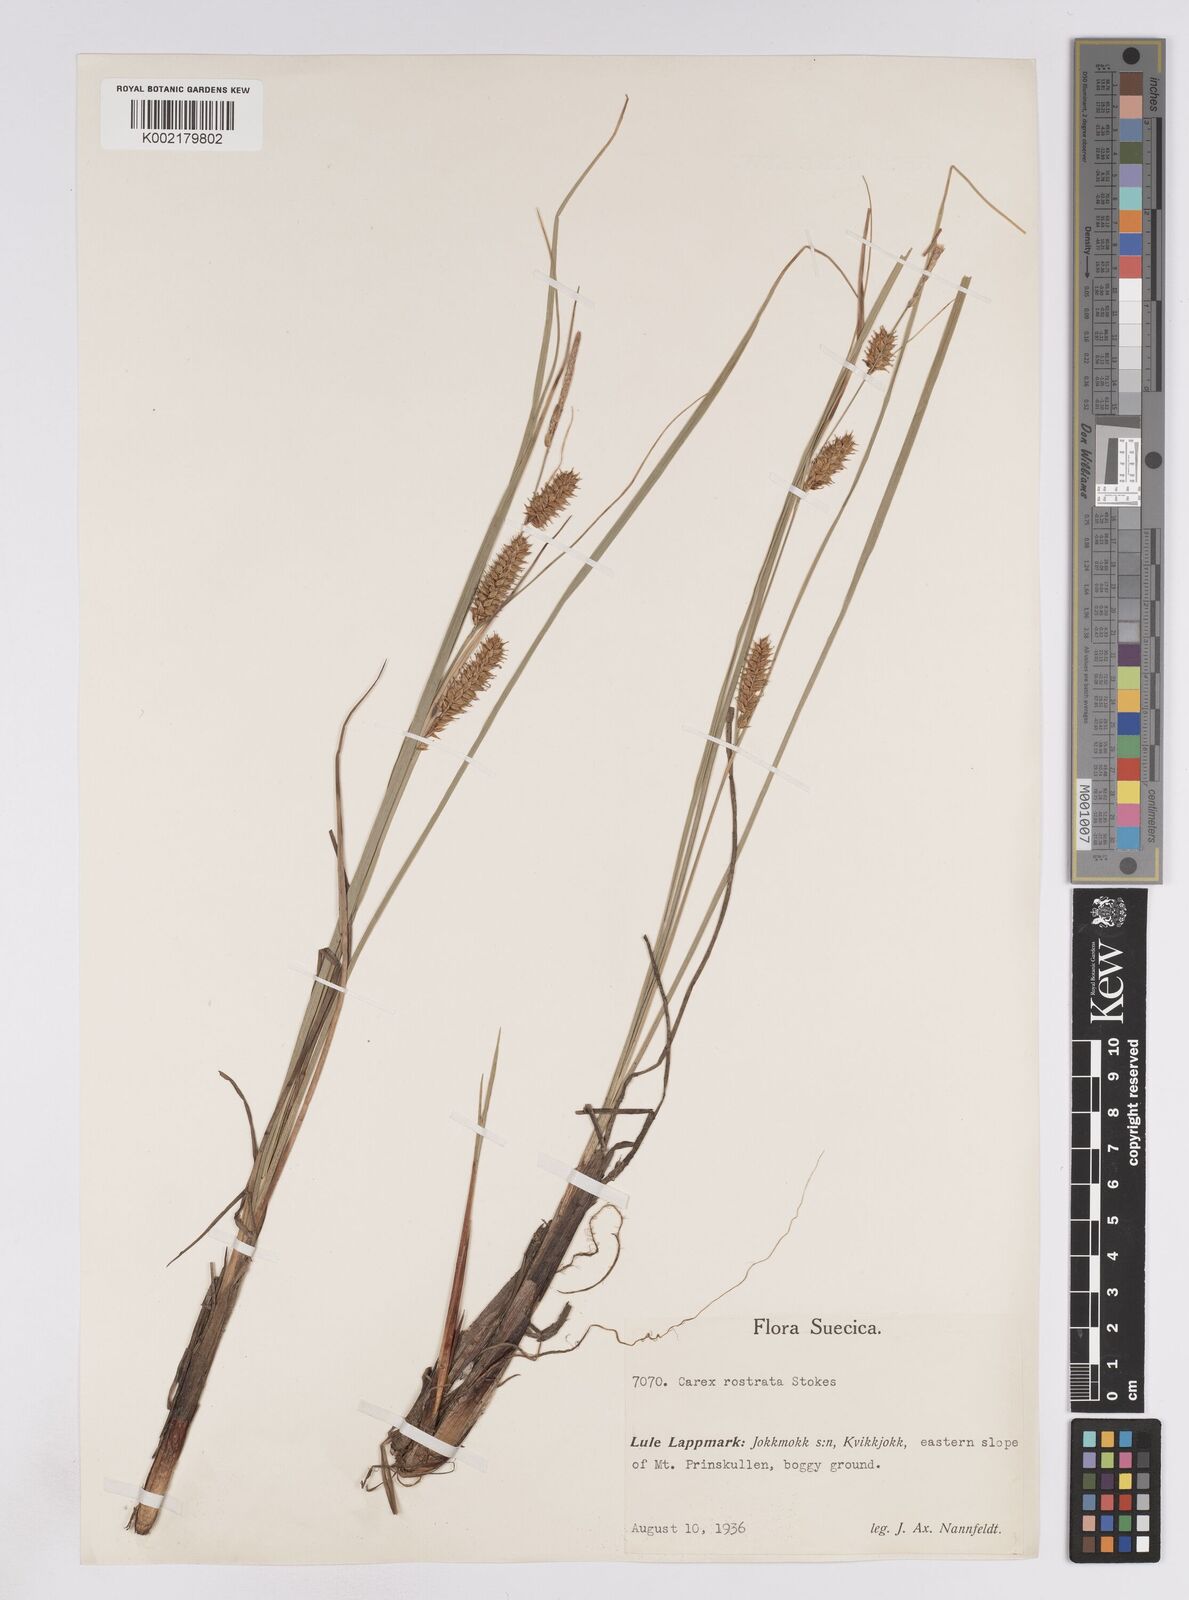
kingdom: Plantae
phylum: Tracheophyta
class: Liliopsida
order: Poales
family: Cyperaceae
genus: Carex
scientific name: Carex rostrata
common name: Bottle sedge
